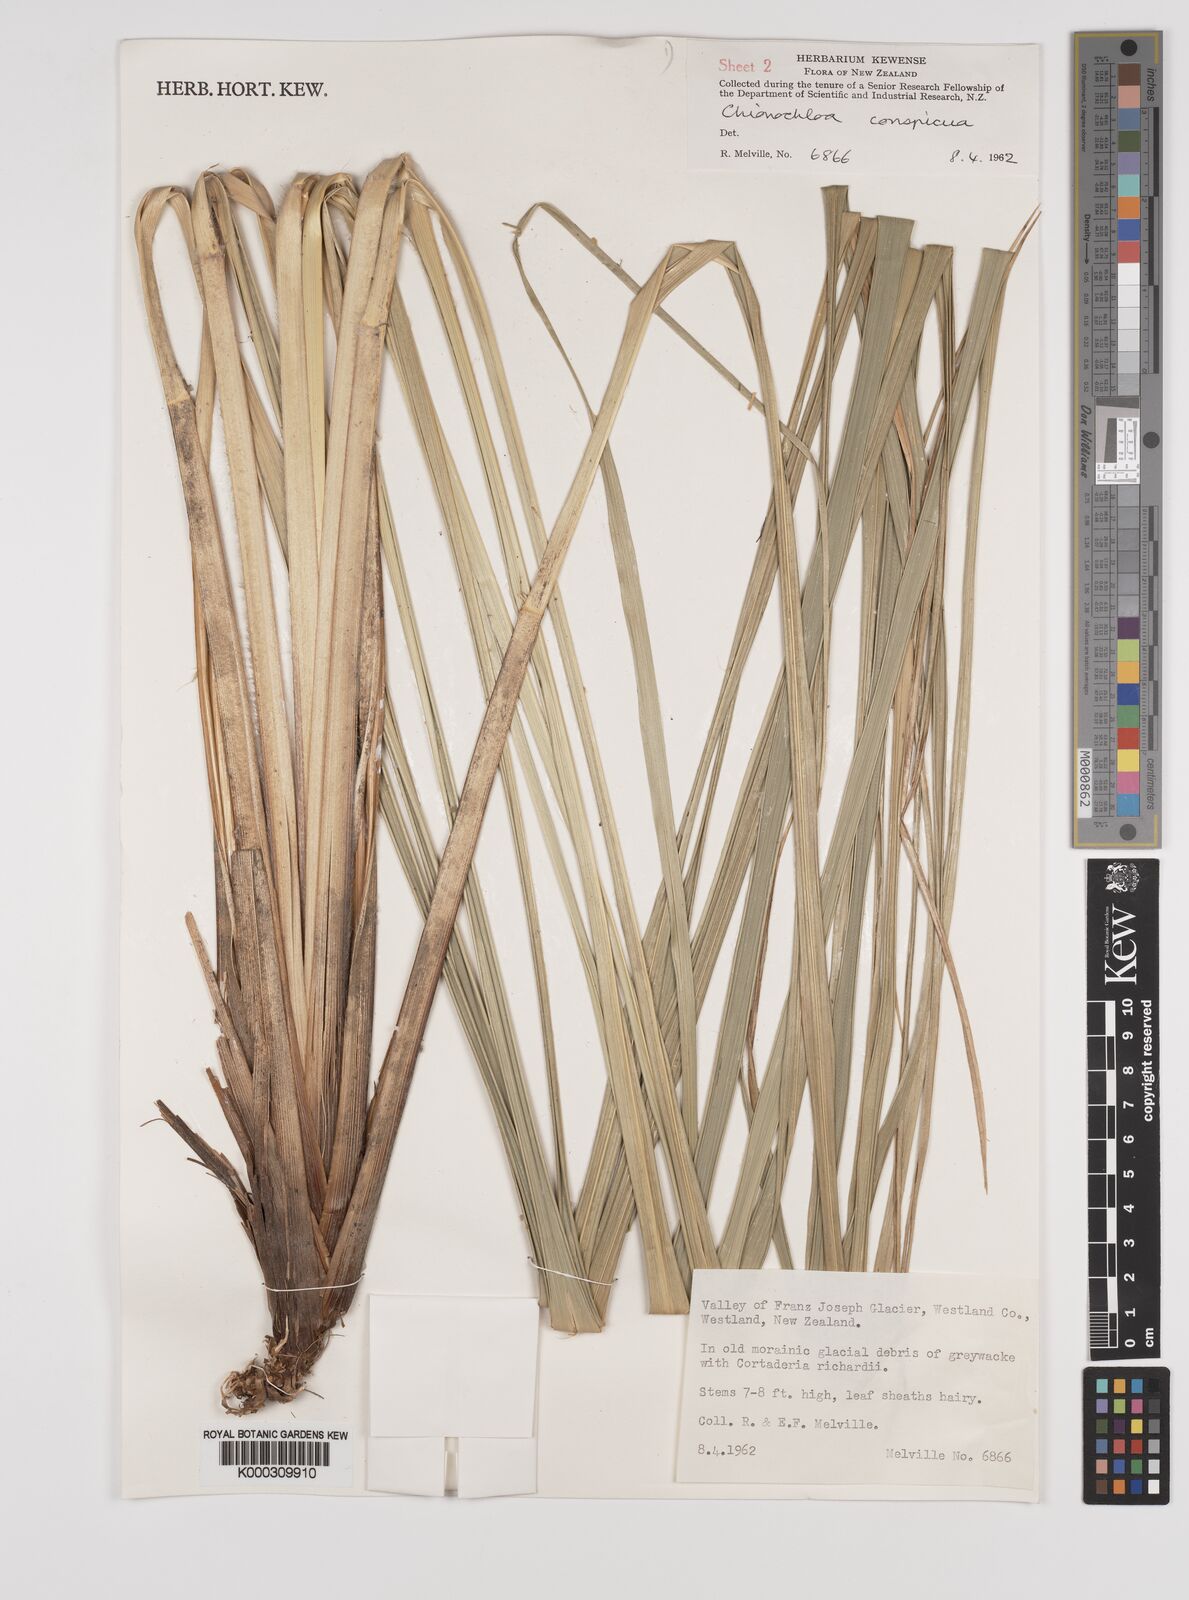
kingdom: Plantae
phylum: Tracheophyta
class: Liliopsida
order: Poales
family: Poaceae
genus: Chionochloa
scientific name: Chionochloa conspicua
